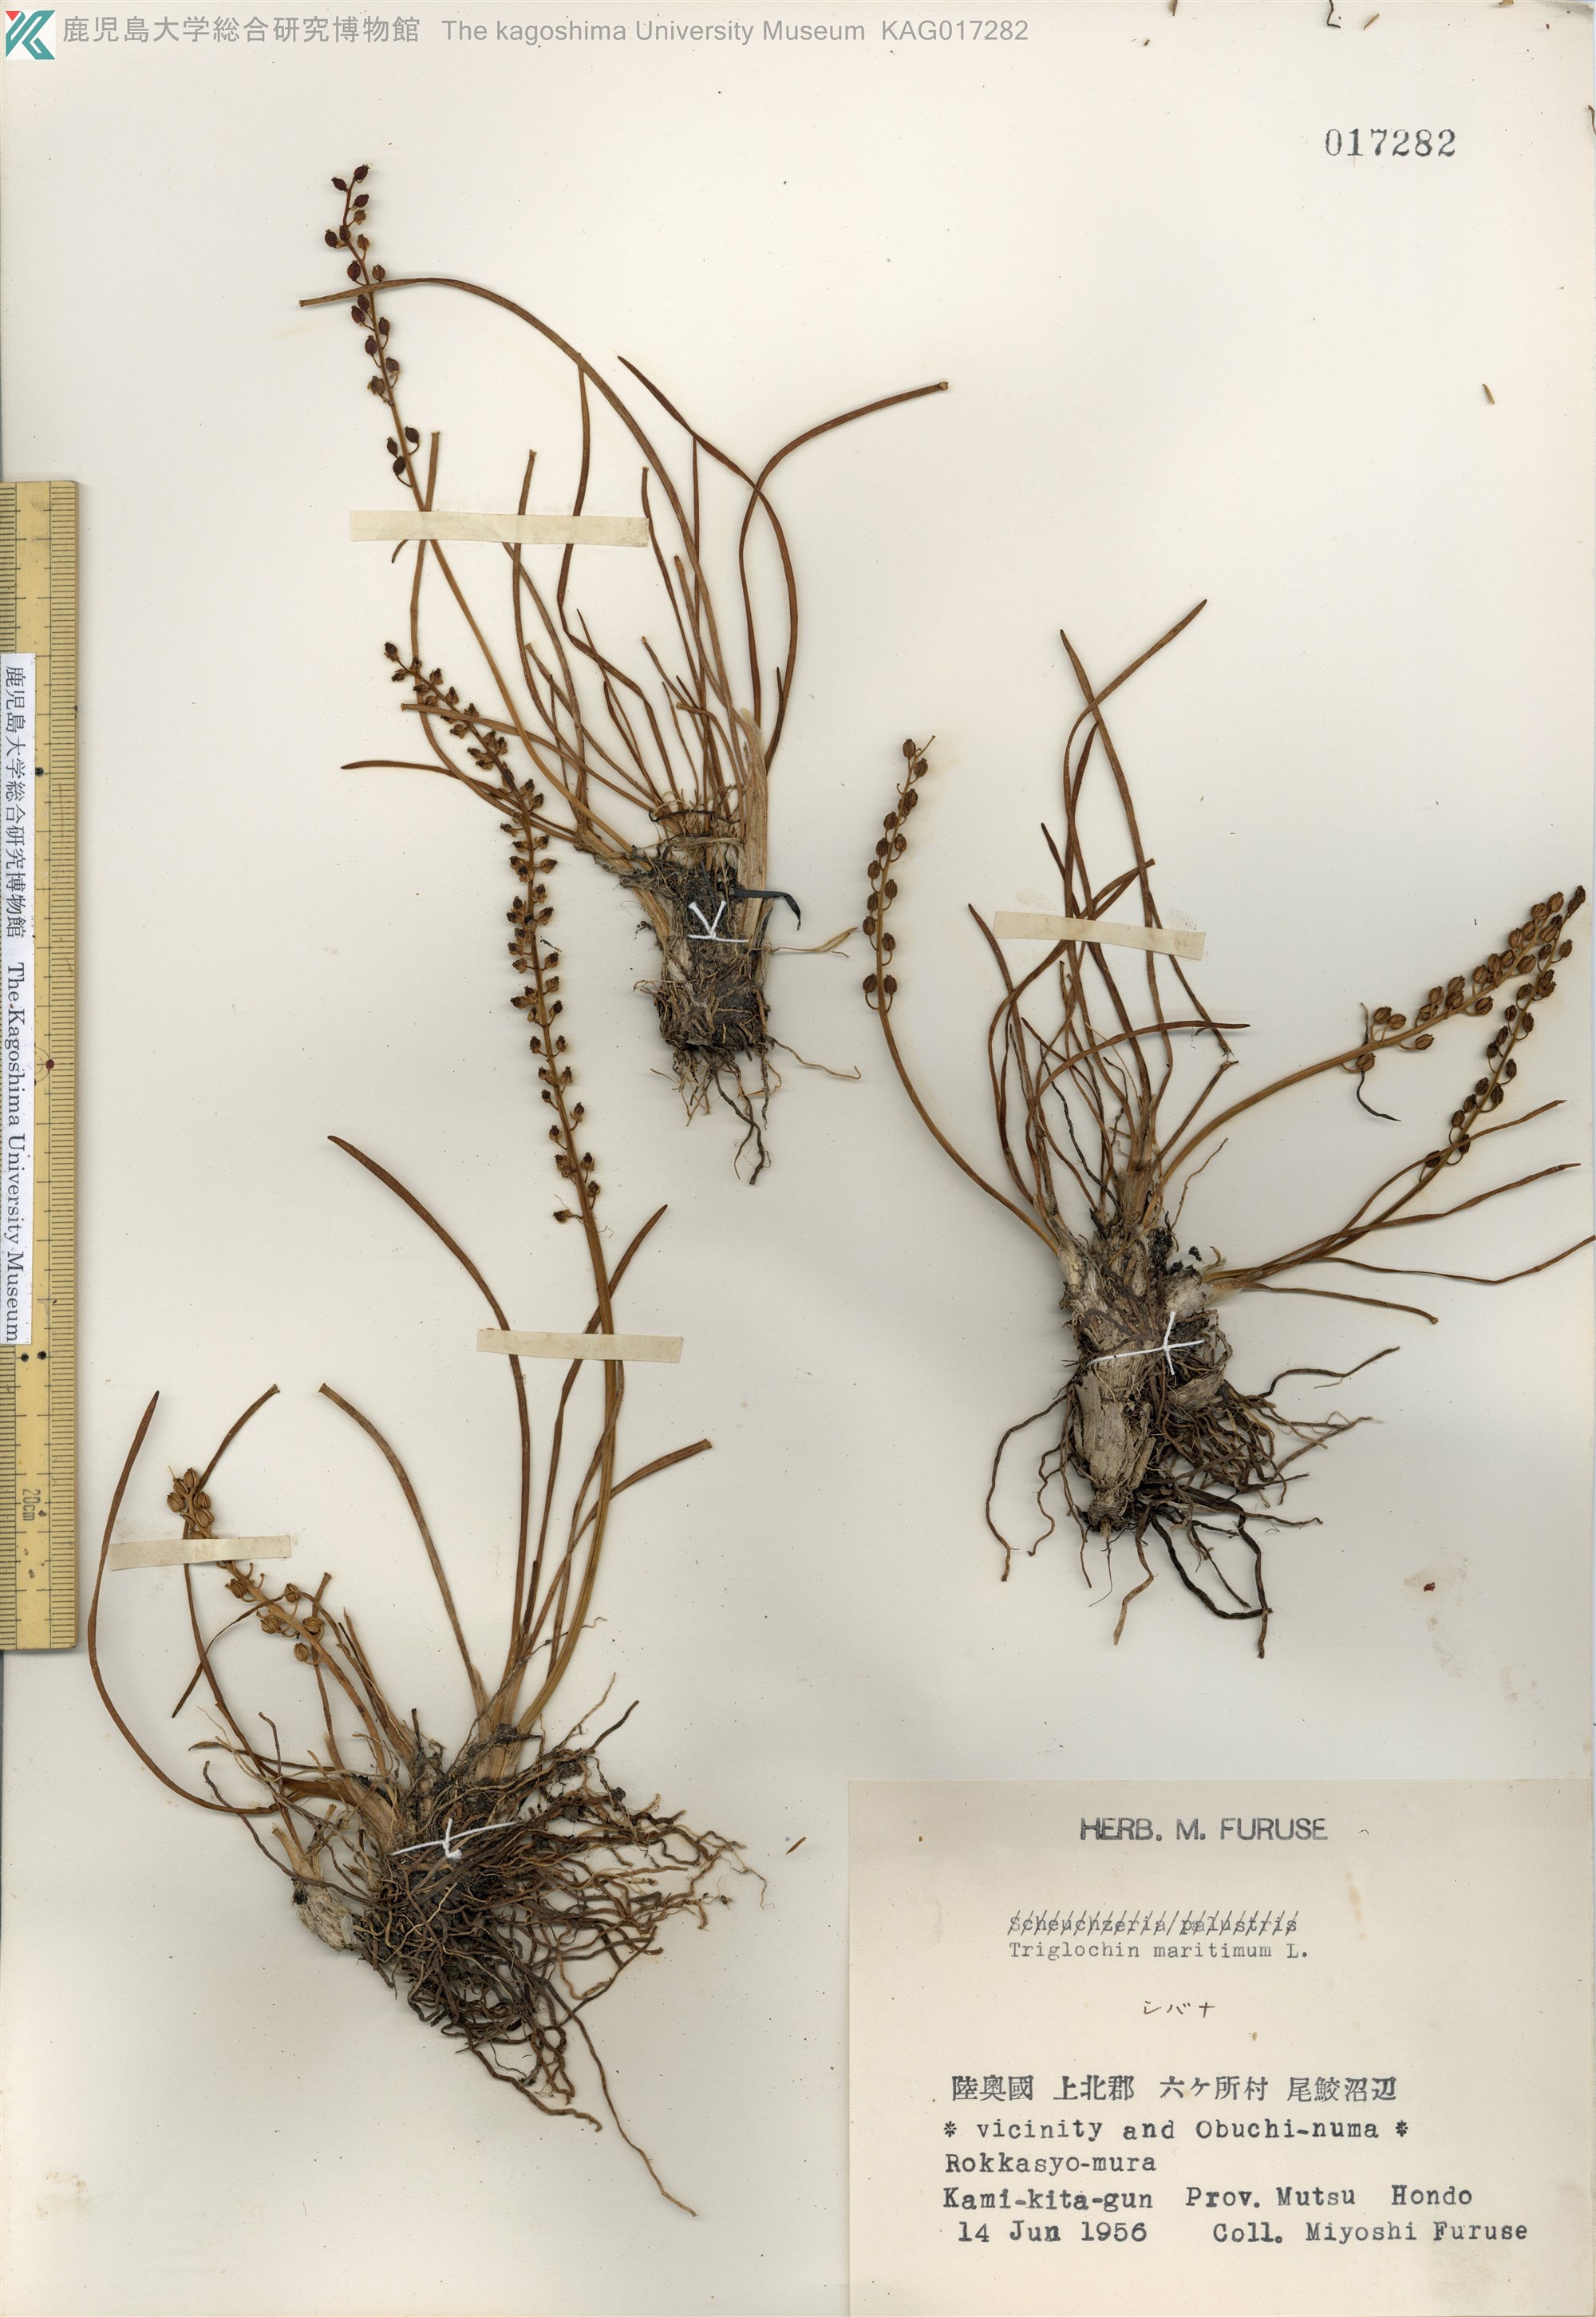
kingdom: Plantae
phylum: Tracheophyta
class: Liliopsida
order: Alismatales
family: Juncaginaceae
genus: Triglochin
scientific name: Triglochin maritima
